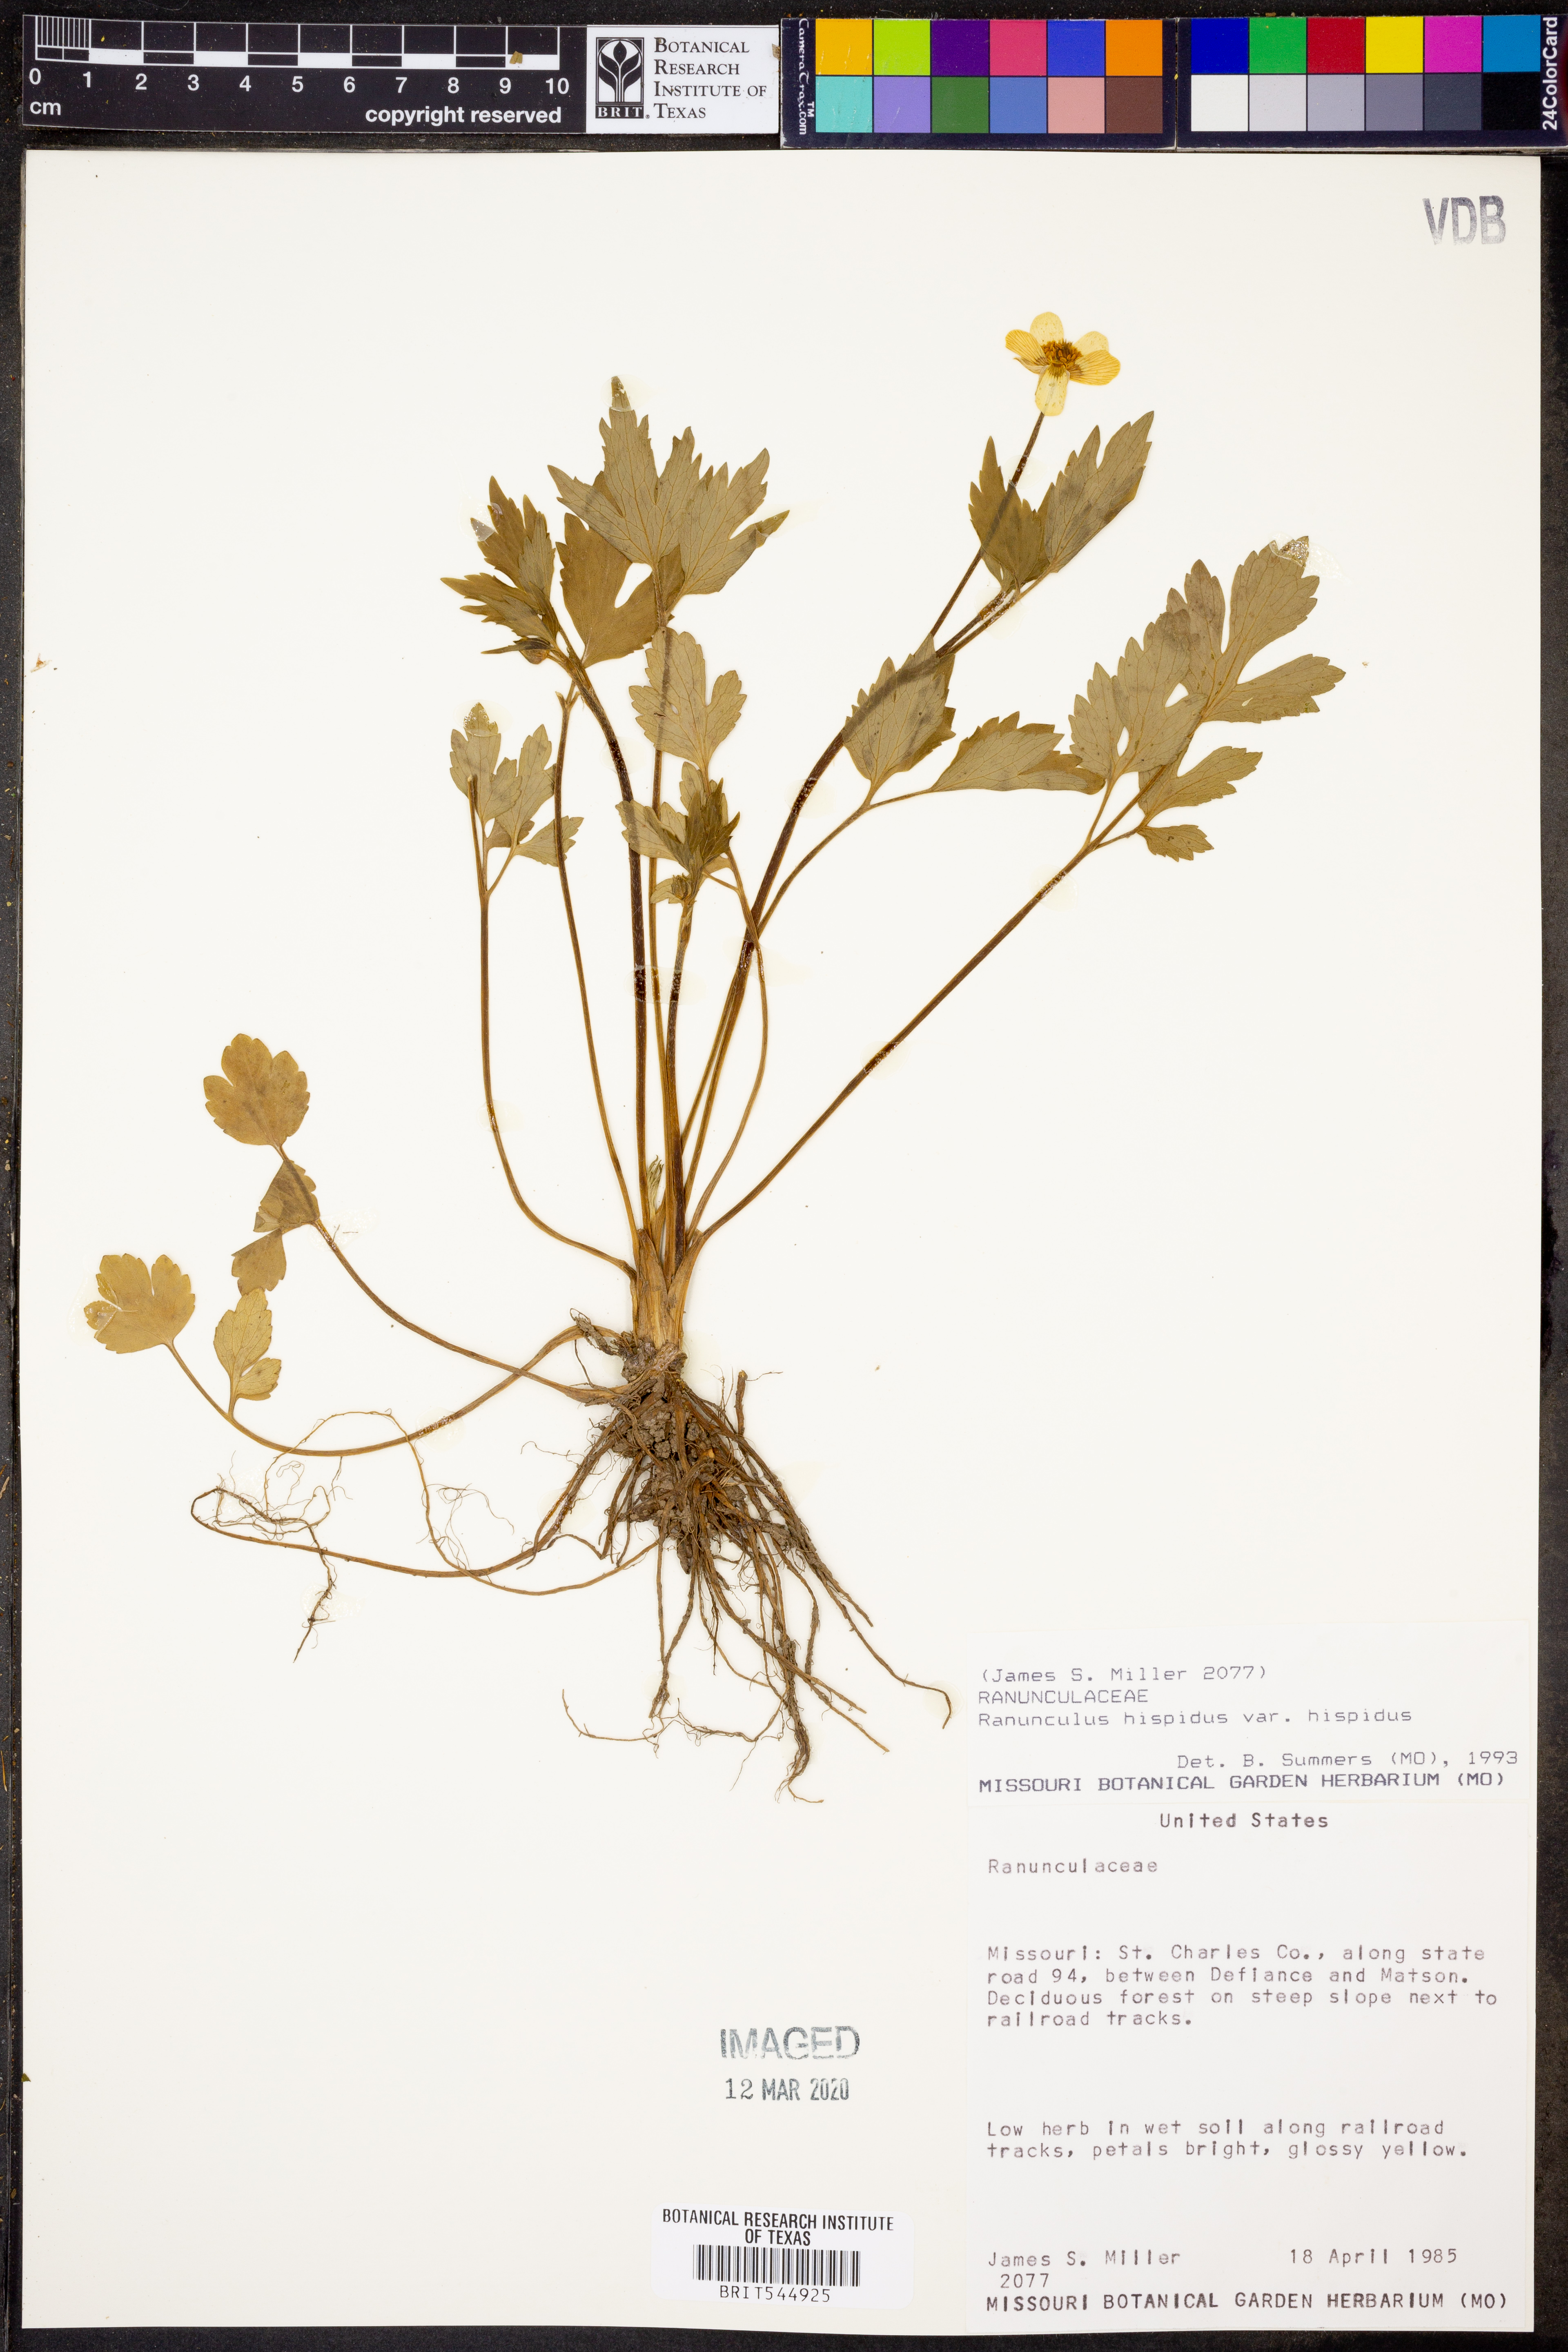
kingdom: Plantae
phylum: Tracheophyta
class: Magnoliopsida
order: Ranunculales
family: Ranunculaceae
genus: Ranunculus
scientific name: Ranunculus hispidus
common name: Bristly buttercup
